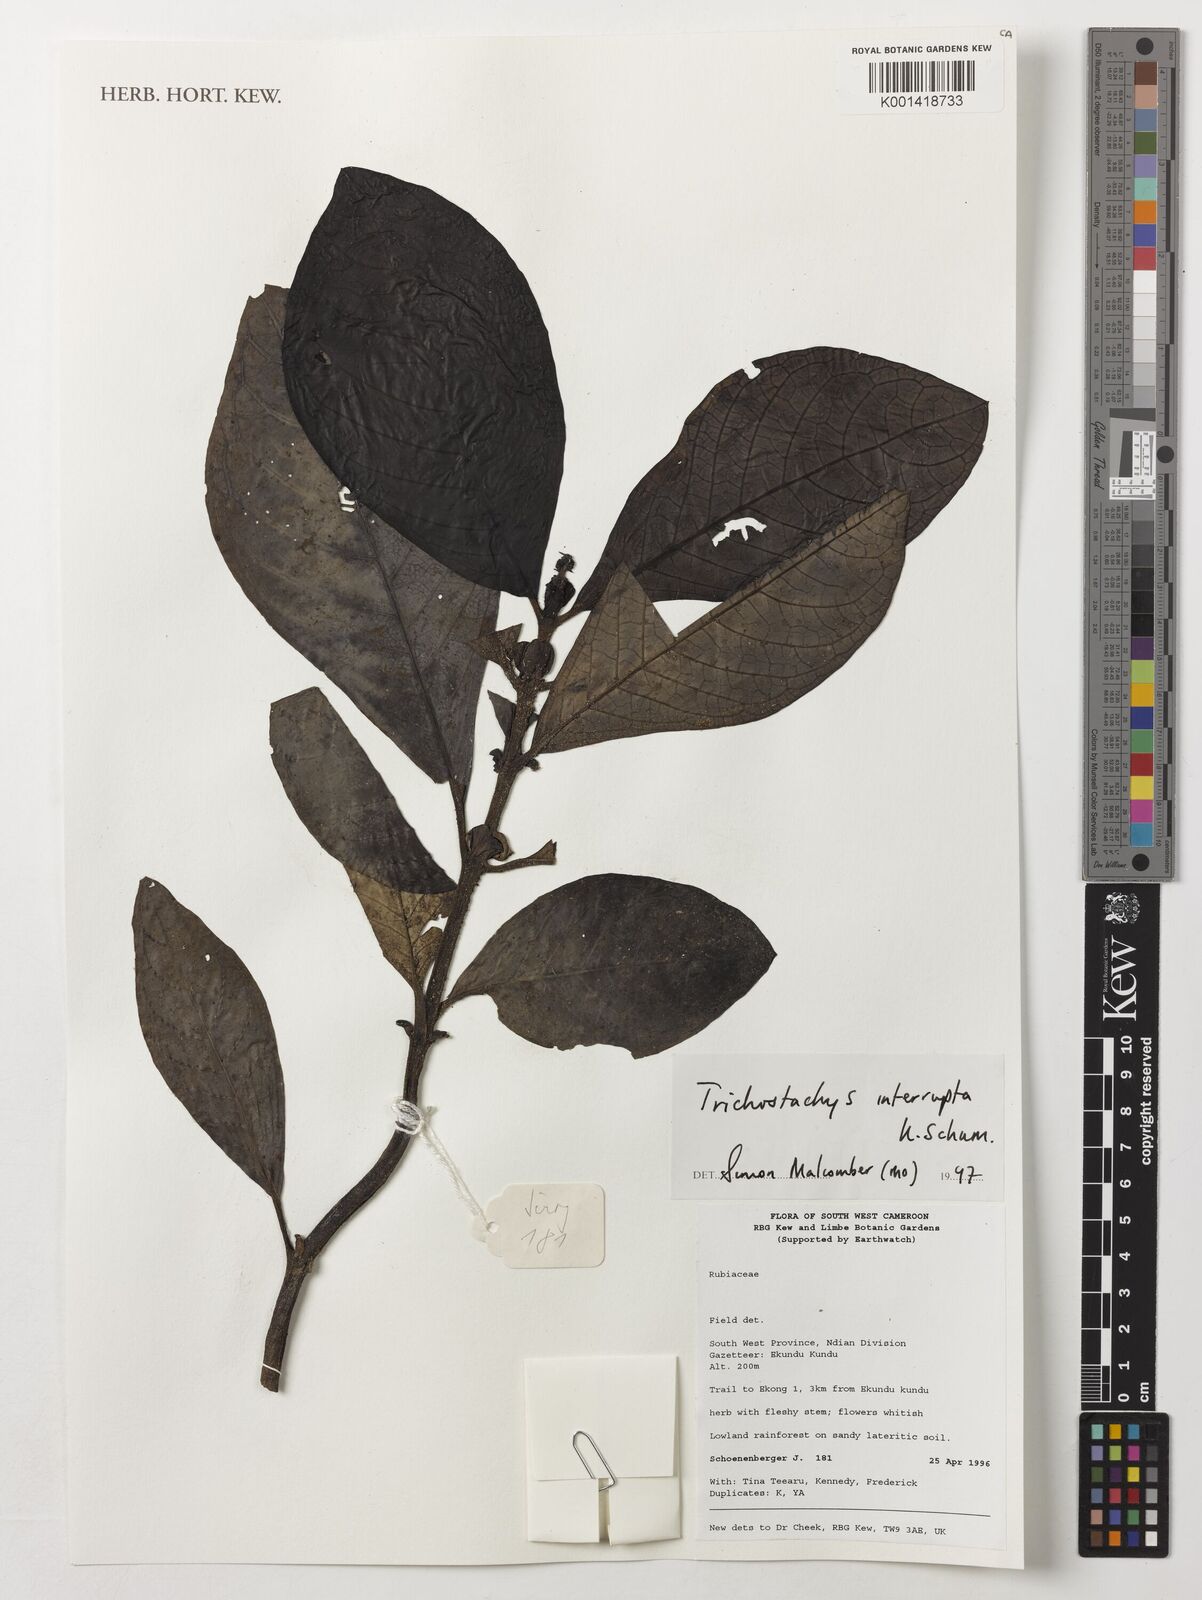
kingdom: Plantae
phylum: Tracheophyta
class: Magnoliopsida
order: Gentianales
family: Rubiaceae
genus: Trichostachys
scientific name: Trichostachys interrupta
